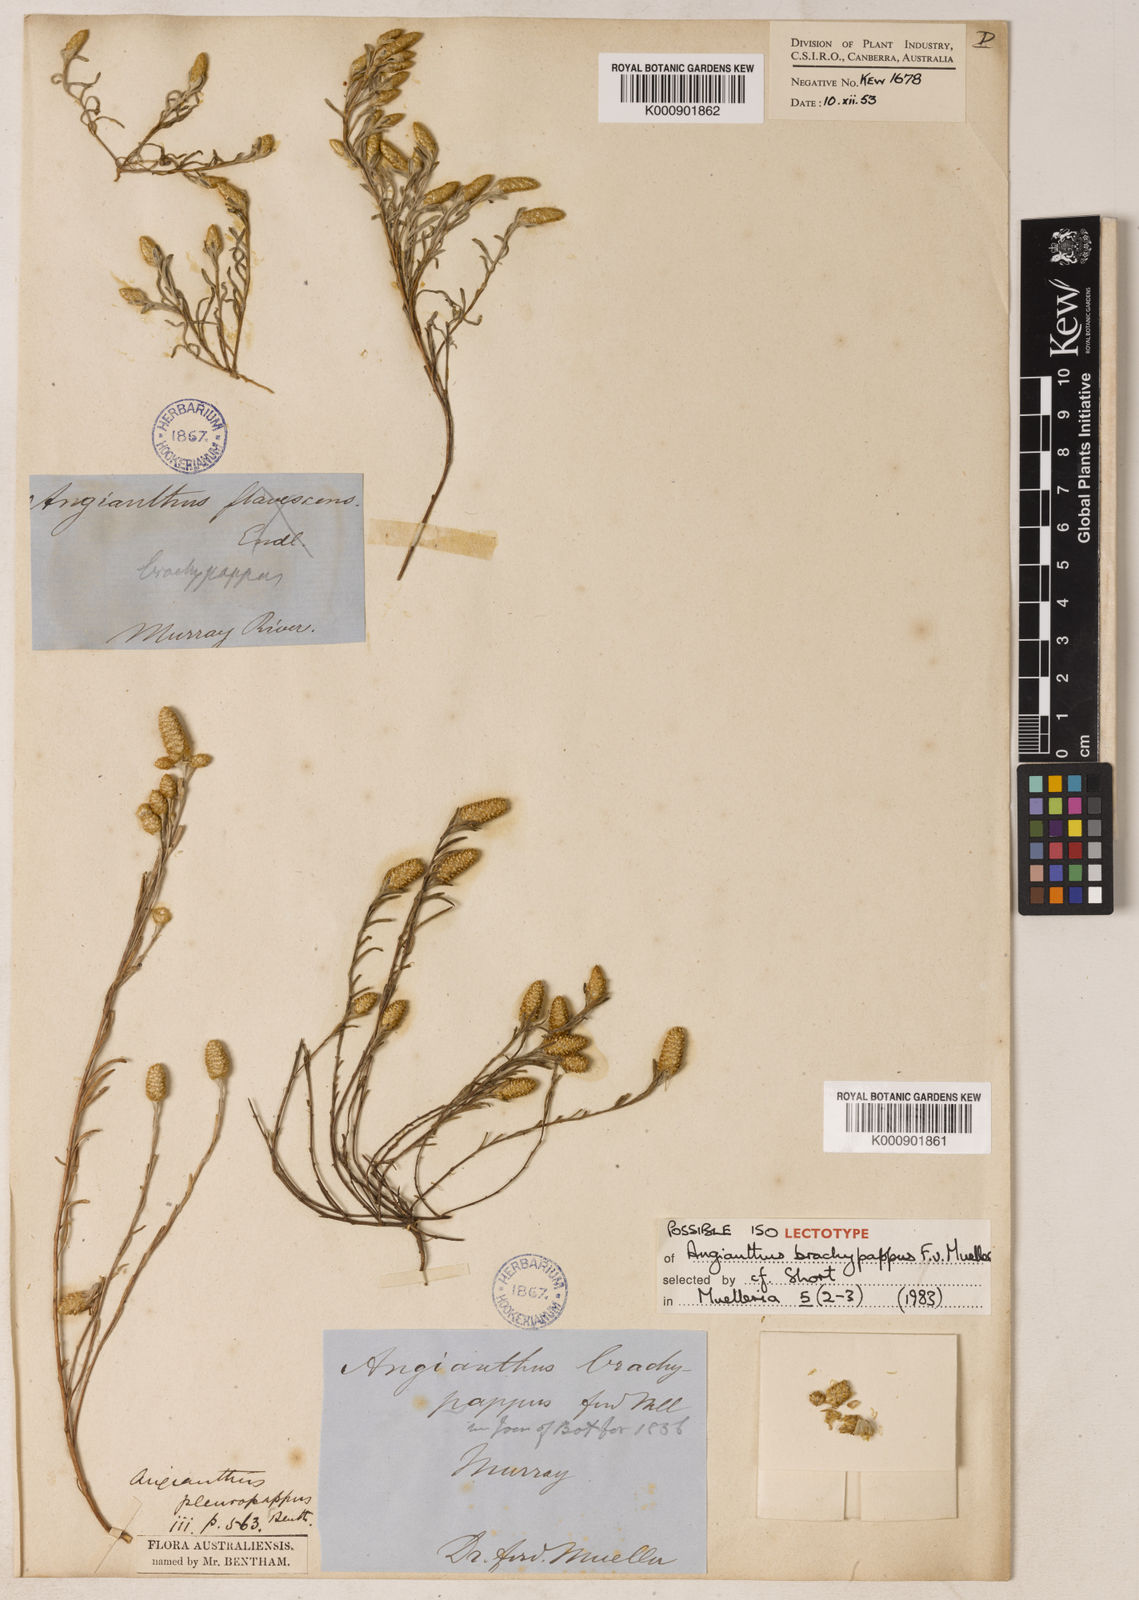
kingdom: Plantae
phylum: Tracheophyta
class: Magnoliopsida
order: Asterales
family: Asteraceae
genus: Angianthus
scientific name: Angianthus brachypappus
